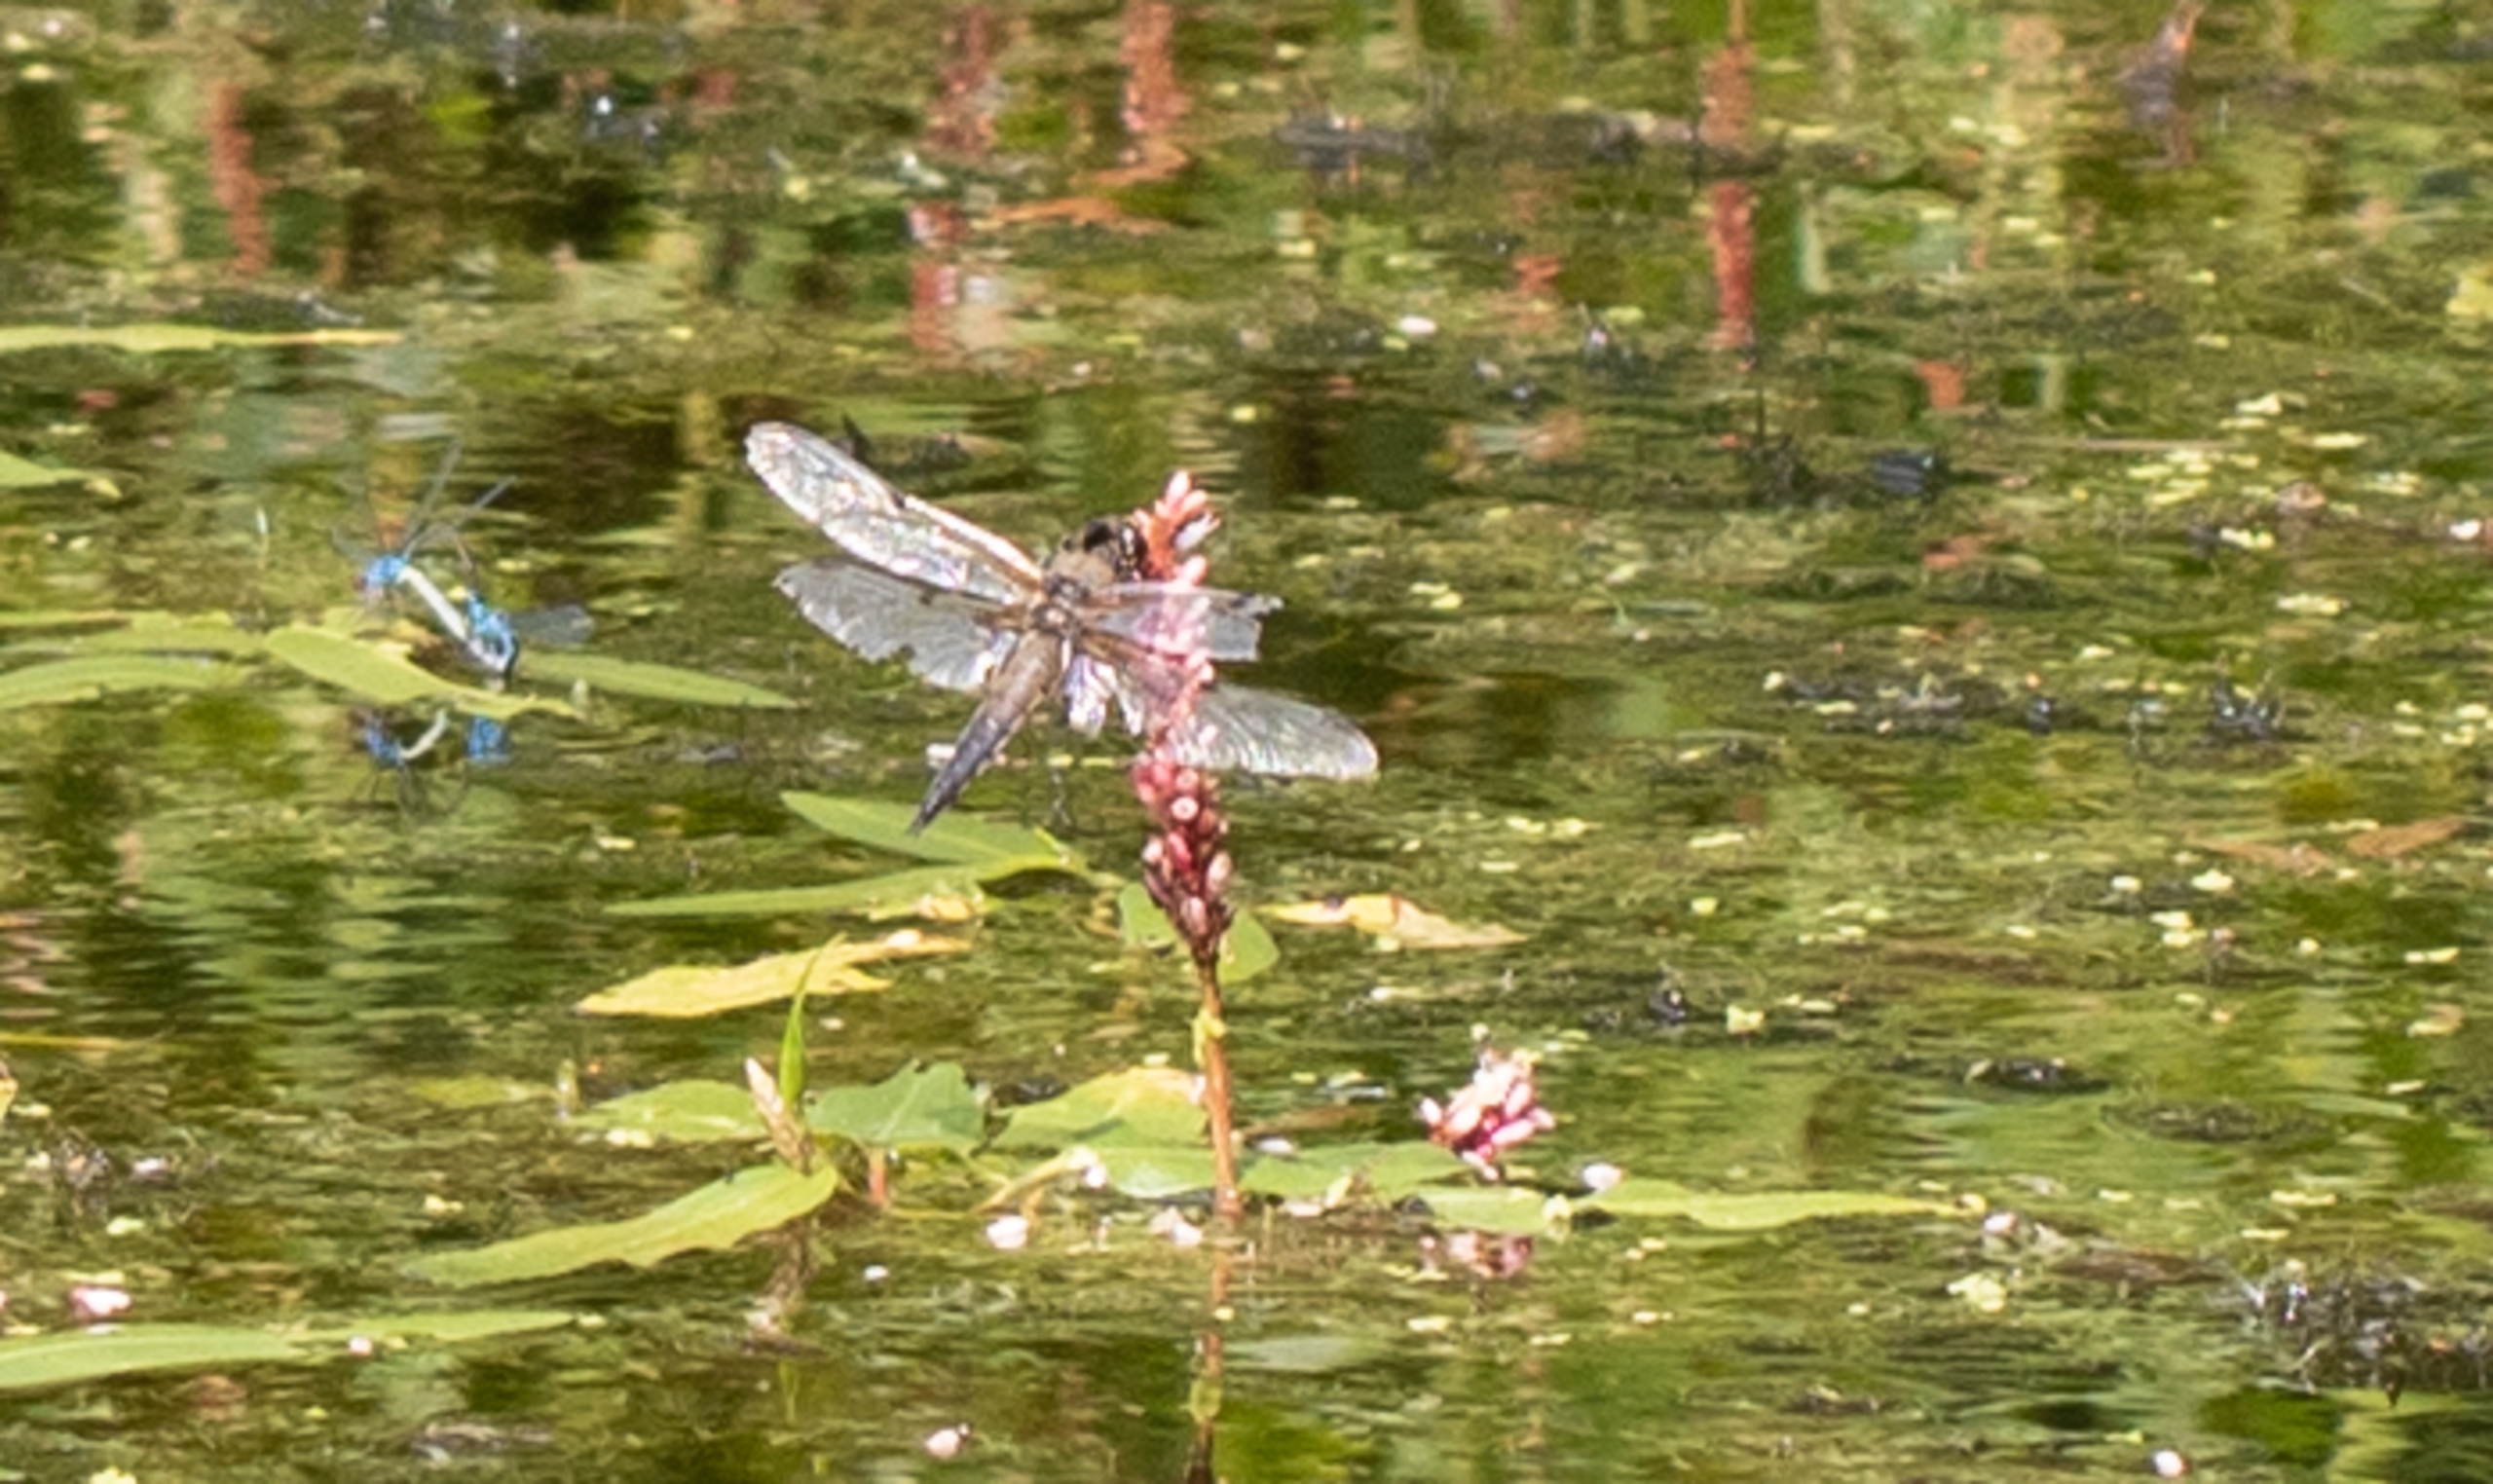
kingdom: Animalia
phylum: Arthropoda
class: Insecta
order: Odonata
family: Libellulidae
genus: Libellula
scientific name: Libellula quadrimaculata
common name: Fireplettet libel
